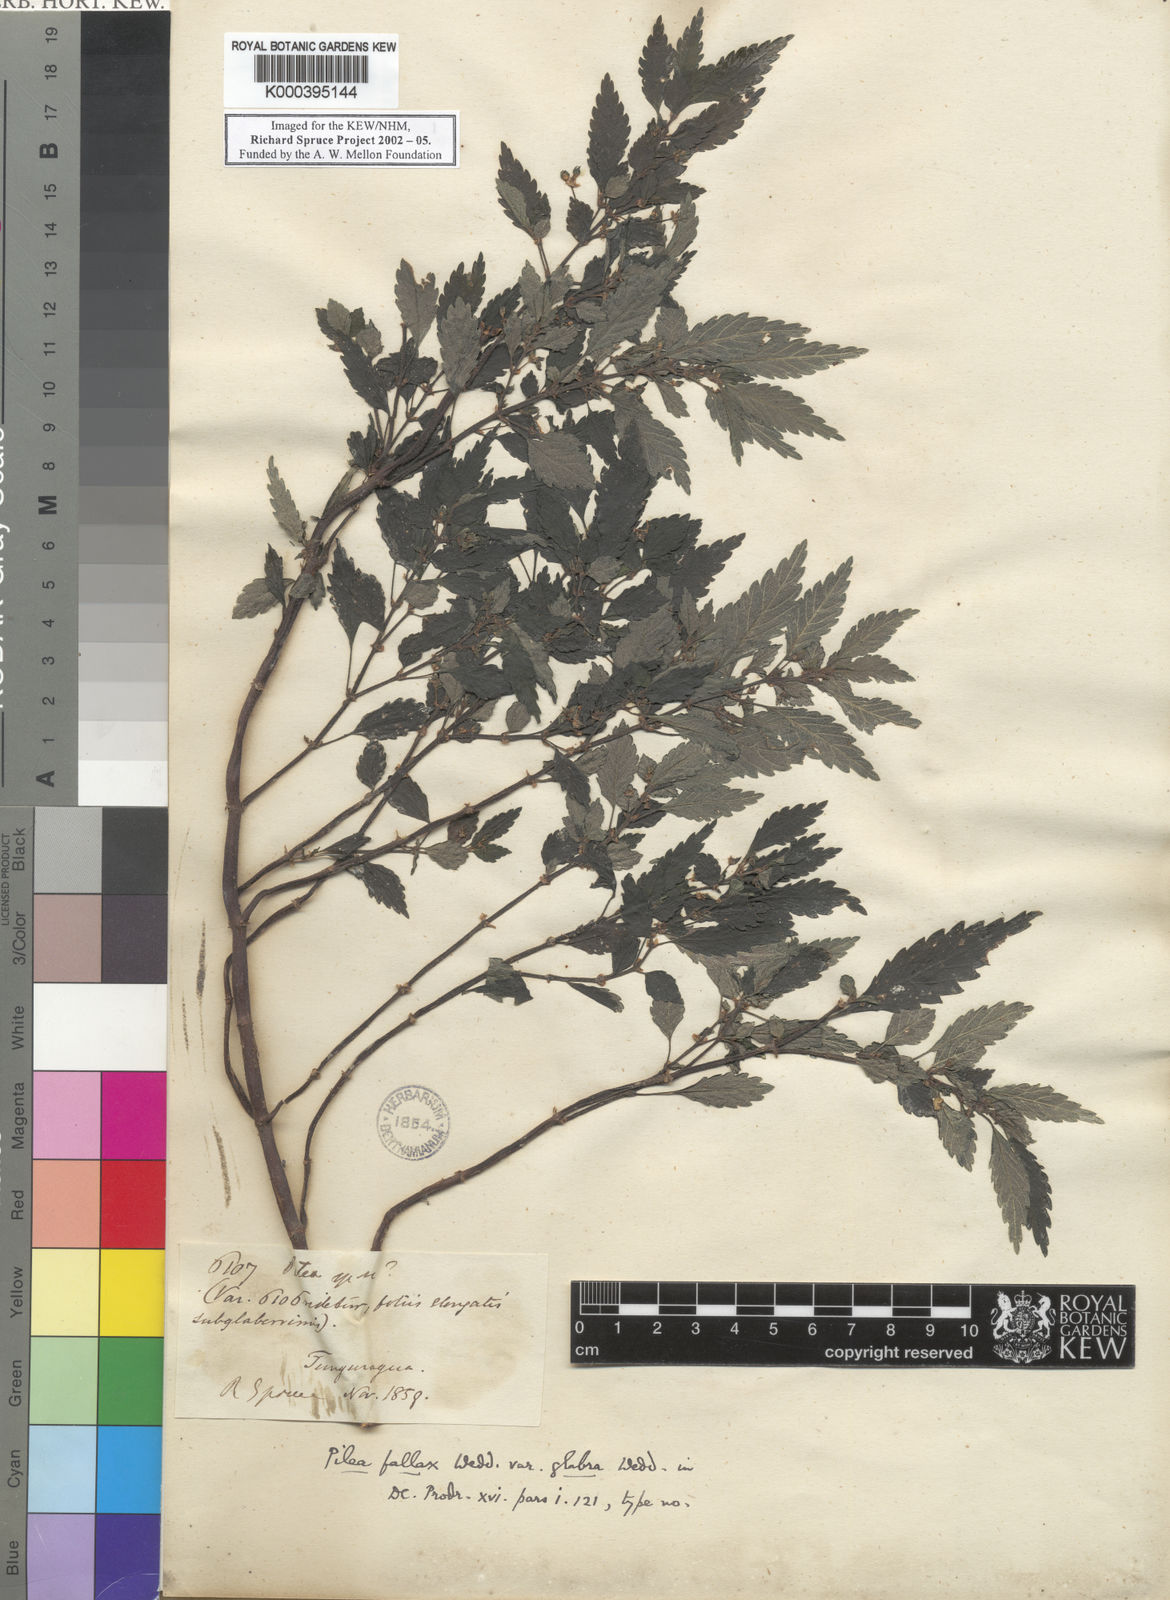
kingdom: Plantae
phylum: Tracheophyta
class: Magnoliopsida
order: Rosales
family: Urticaceae
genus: Pilea
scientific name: Pilea fallax
